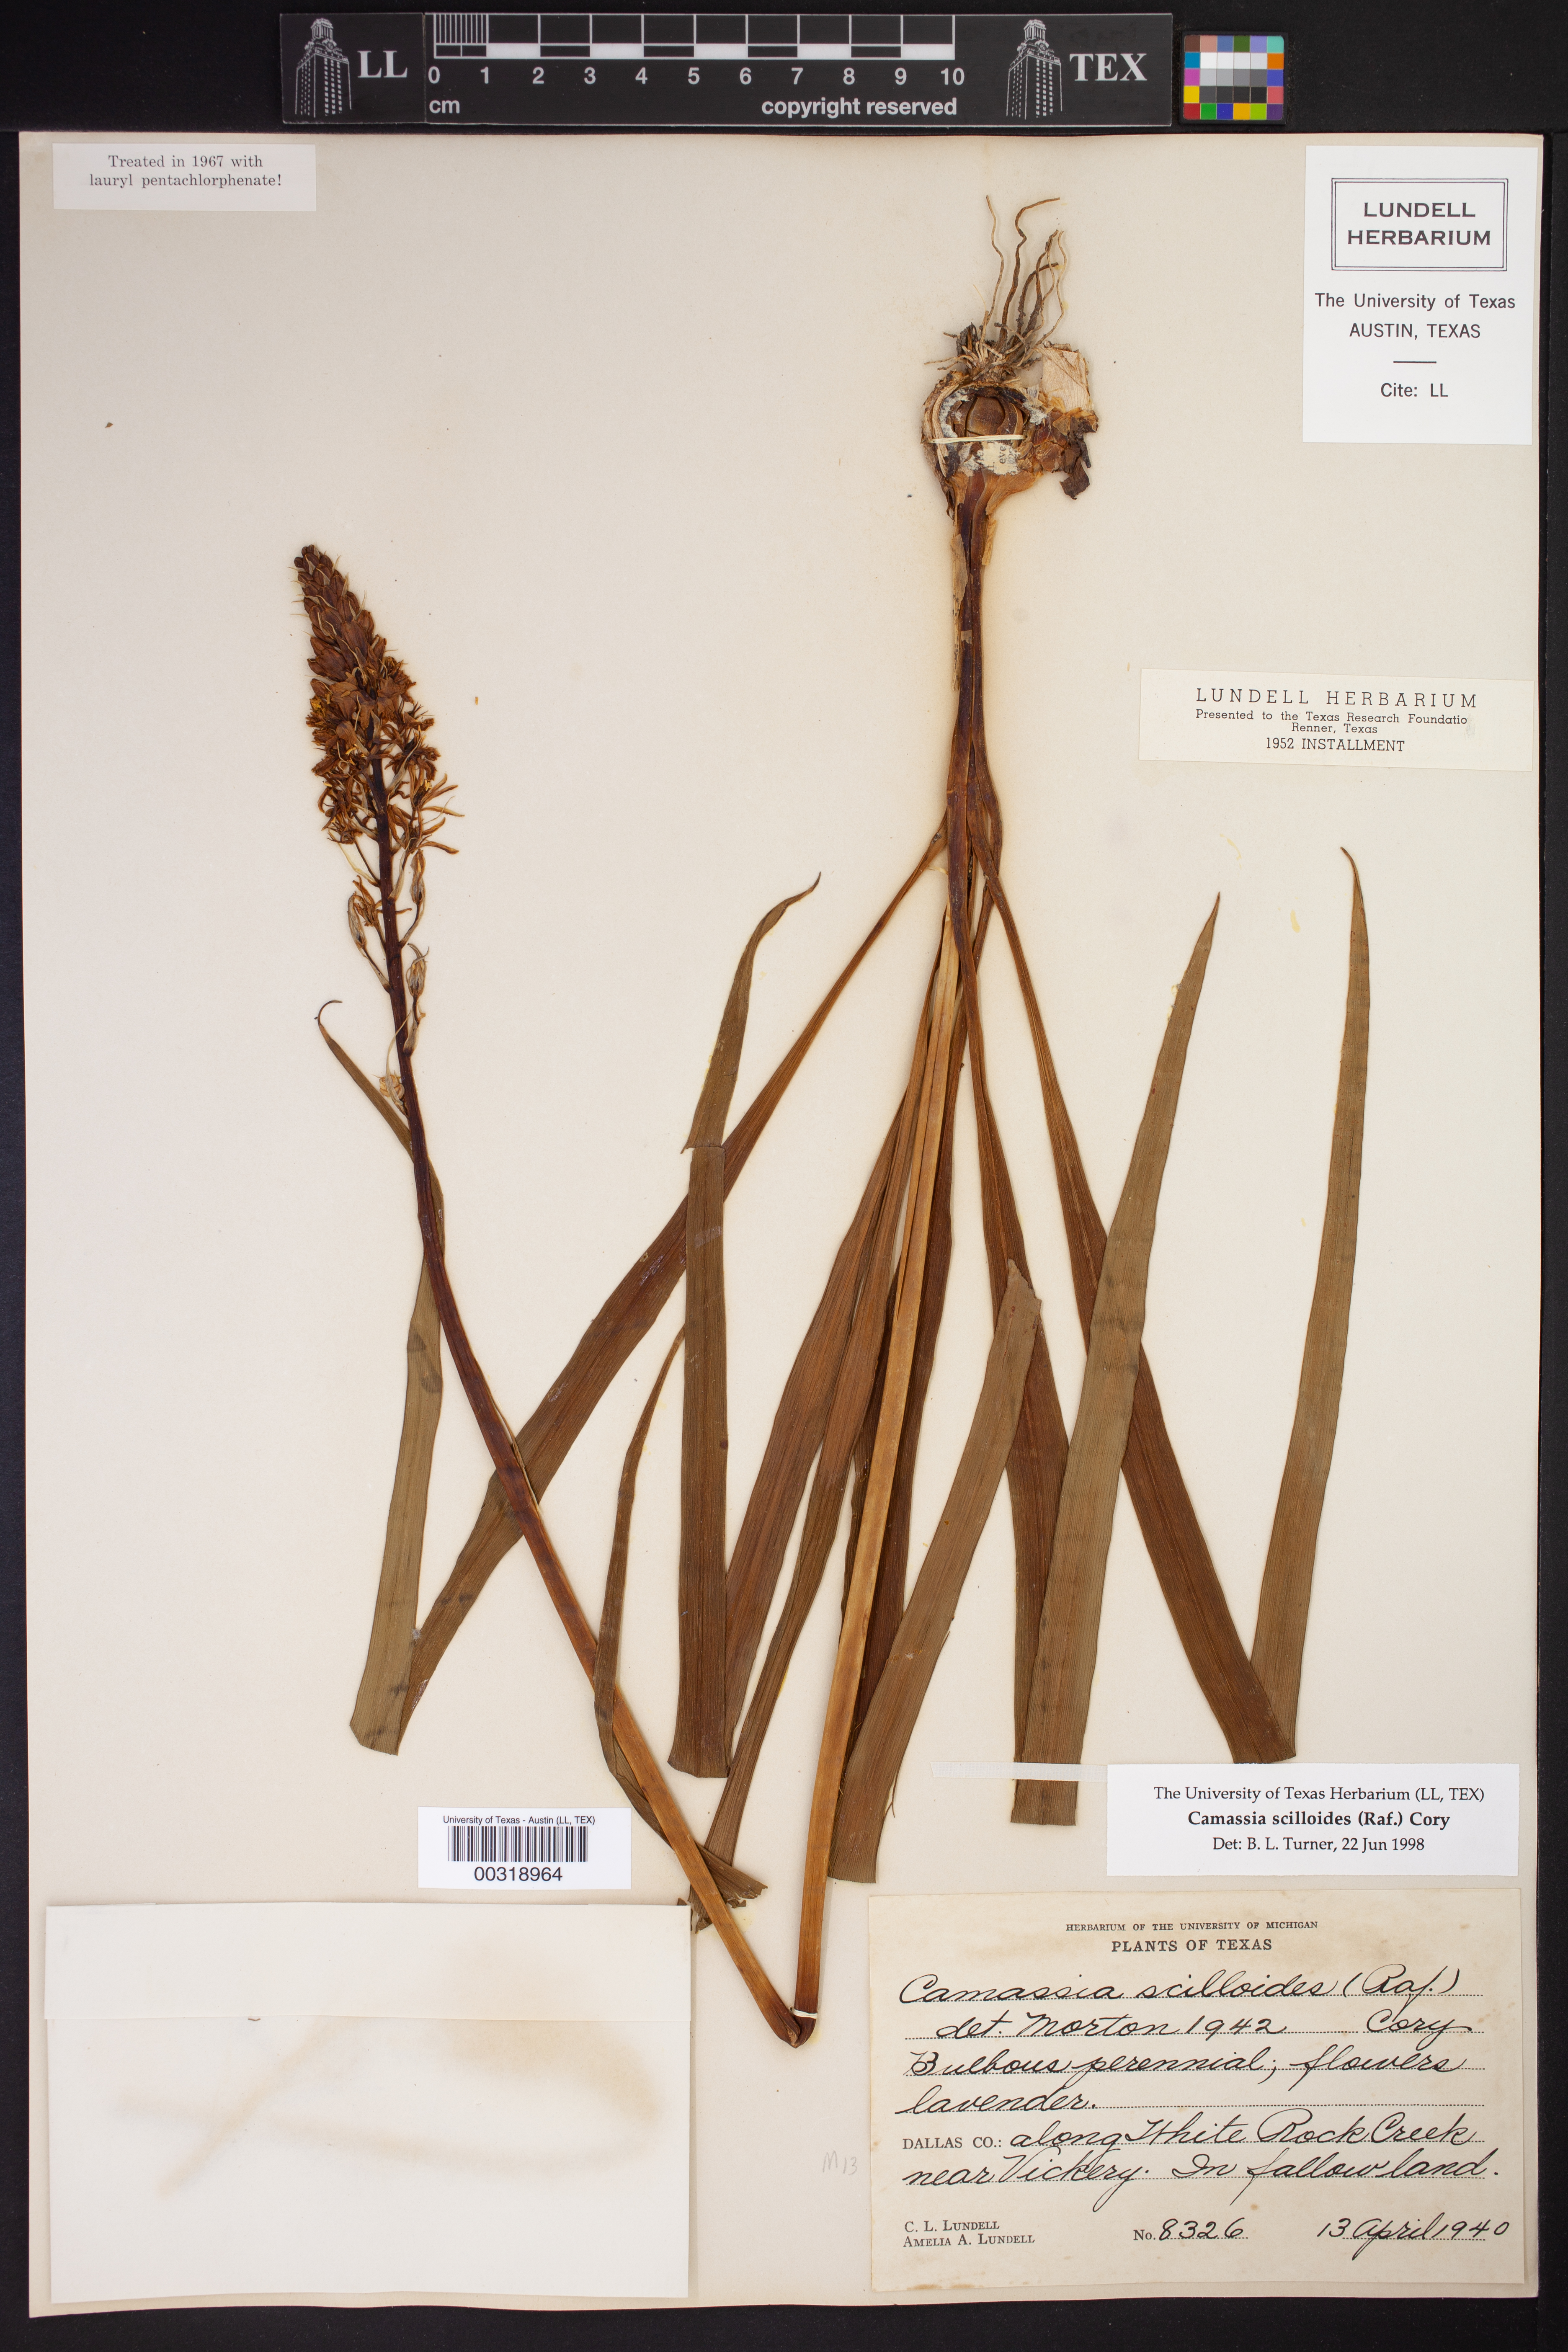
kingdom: Plantae
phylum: Tracheophyta
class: Liliopsida
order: Asparagales
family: Asparagaceae
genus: Camassia
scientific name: Camassia scilloides
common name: Wild hyacinth
